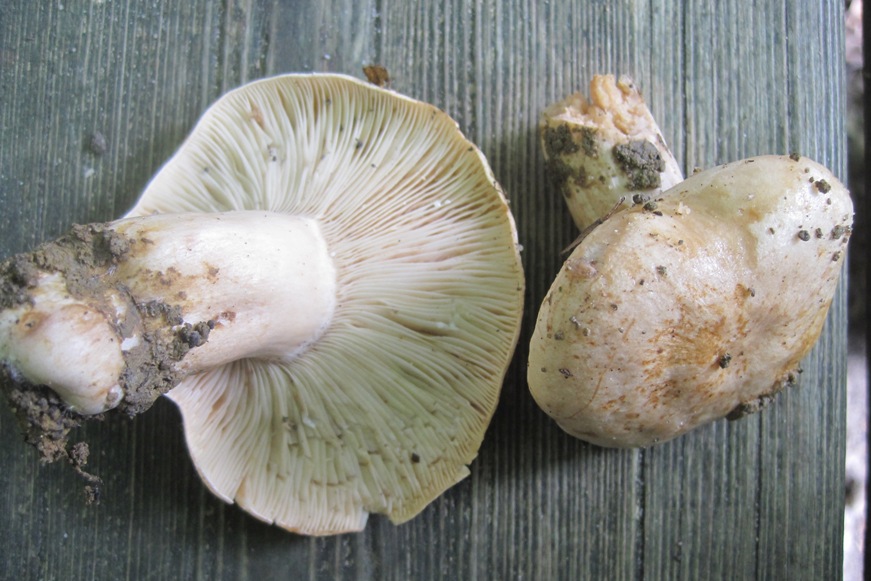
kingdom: Fungi
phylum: Basidiomycota
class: Agaricomycetes
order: Russulales
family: Russulaceae
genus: Lactarius
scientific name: Lactarius pallidus
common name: bleg mælkehat
